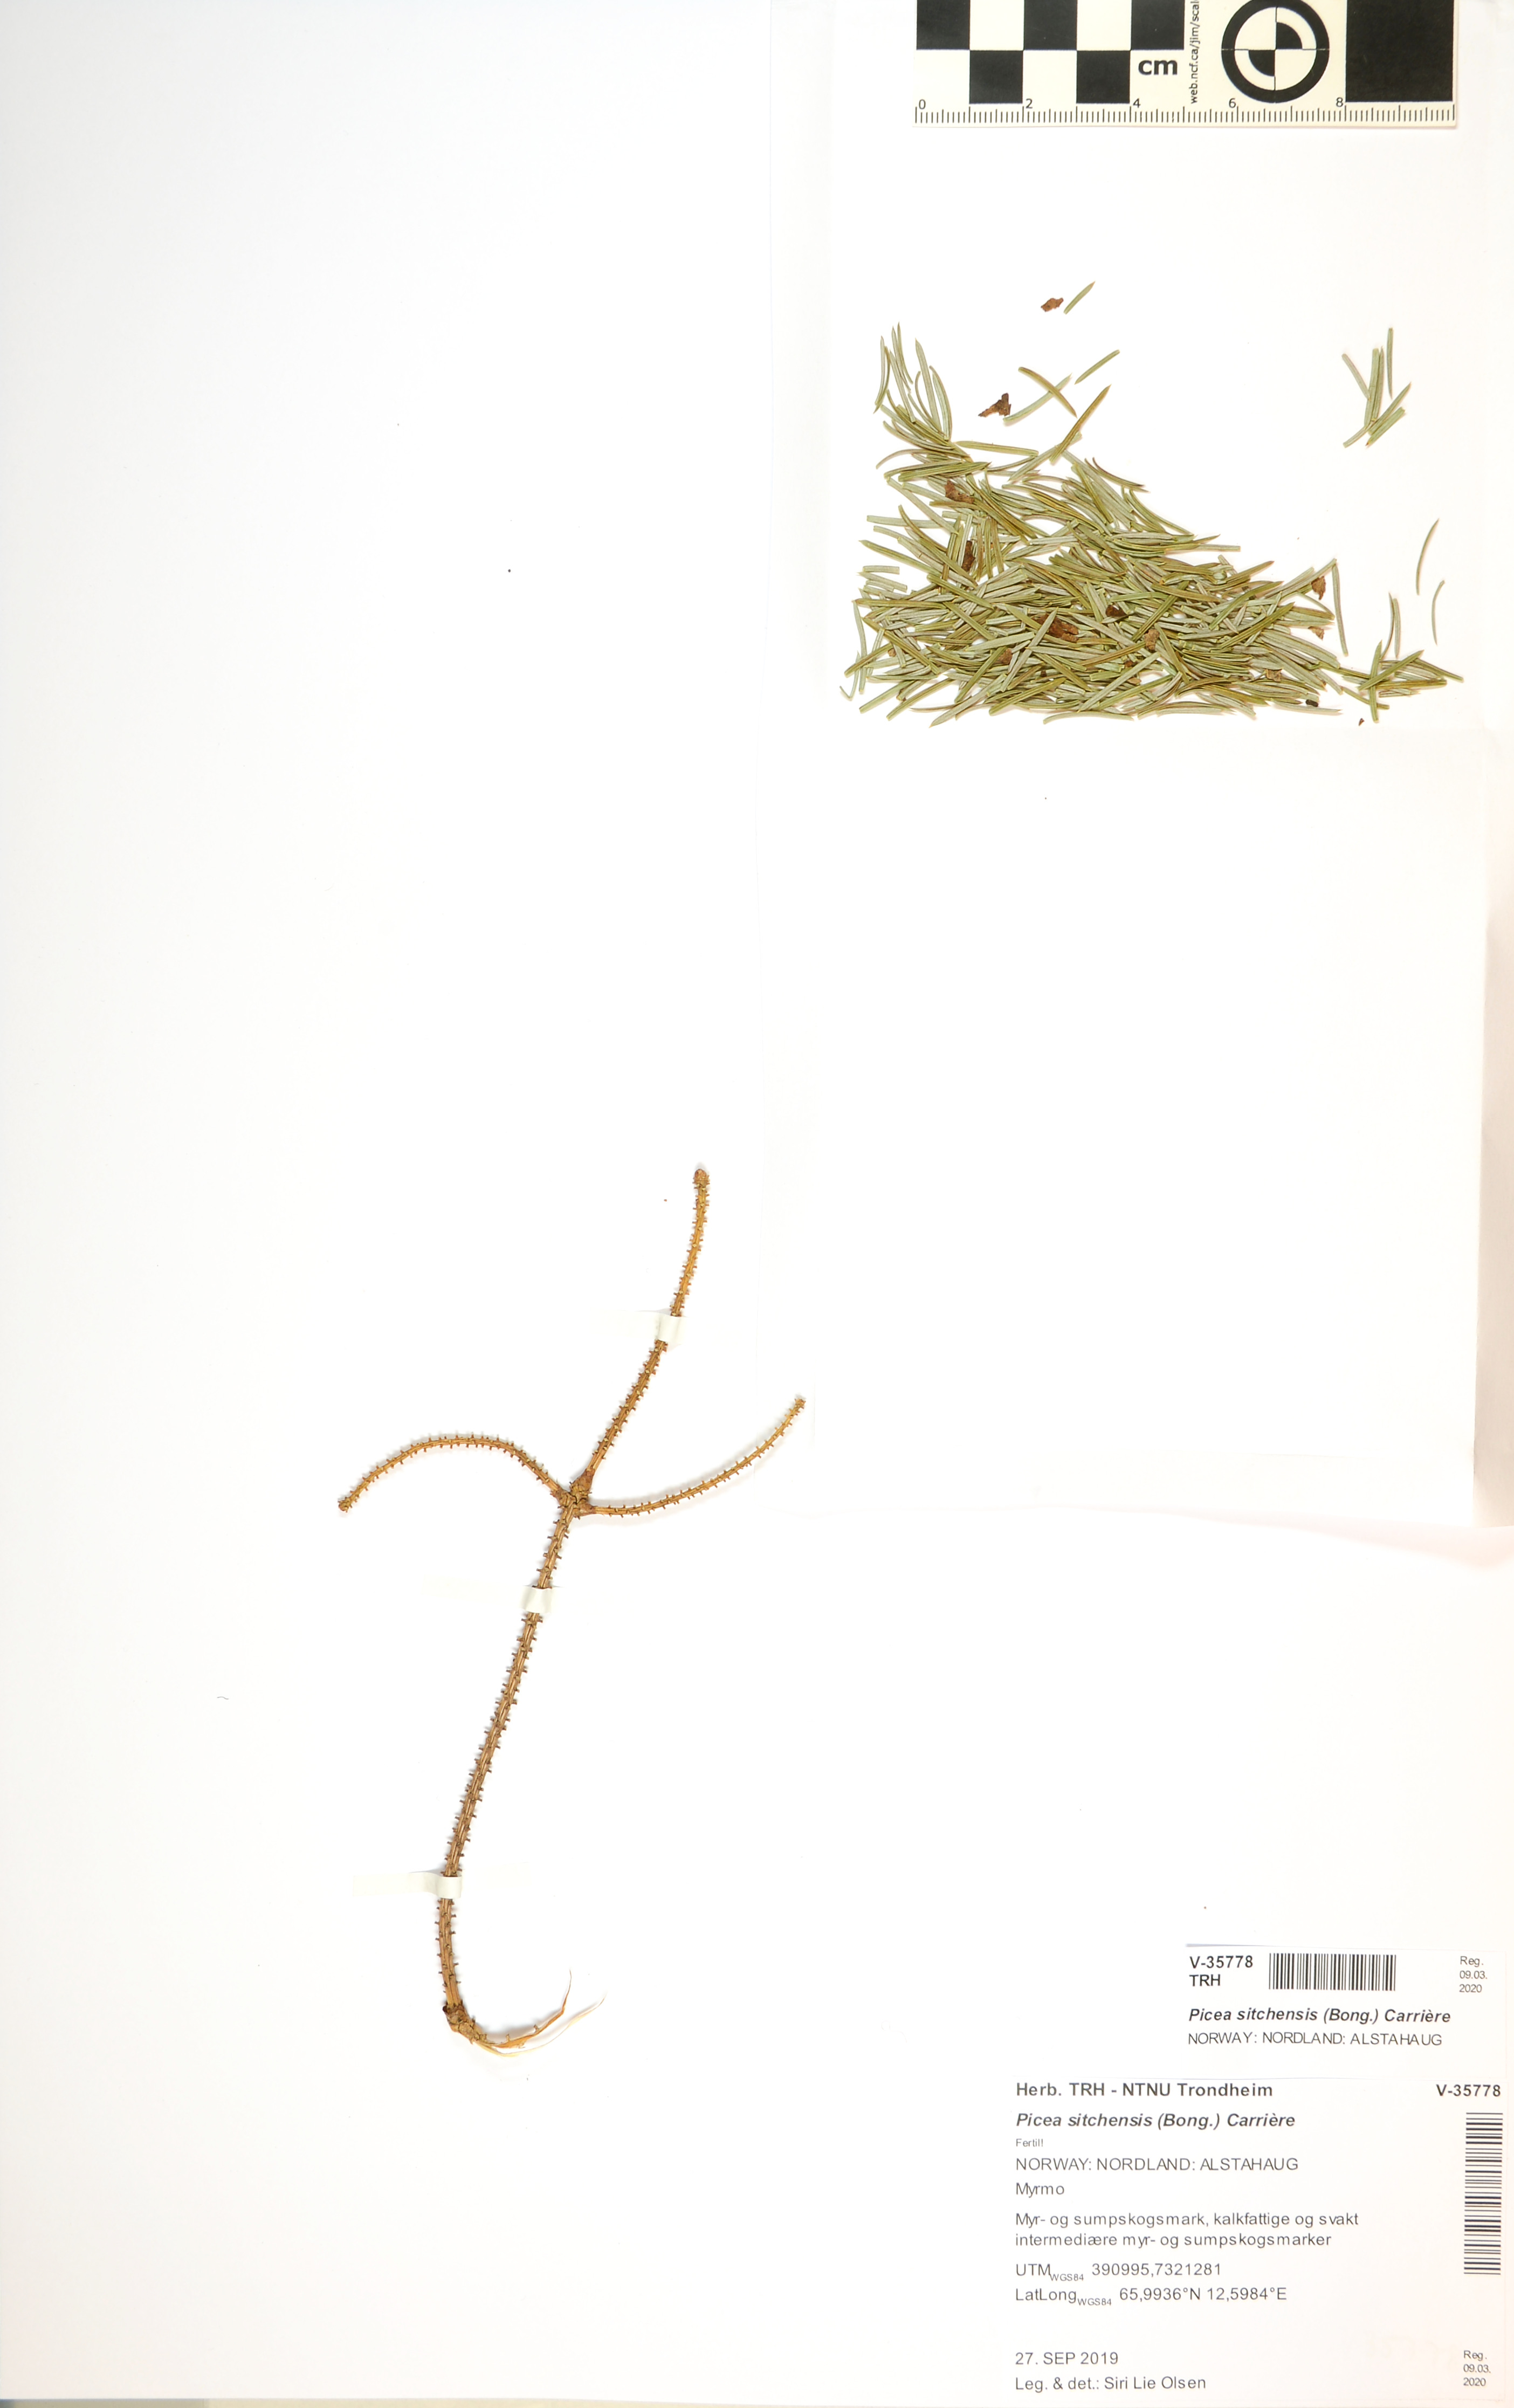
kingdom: Plantae
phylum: Tracheophyta
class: Pinopsida
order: Pinales
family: Pinaceae
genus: Picea
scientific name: Picea sitchensis
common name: Sitka spruce
